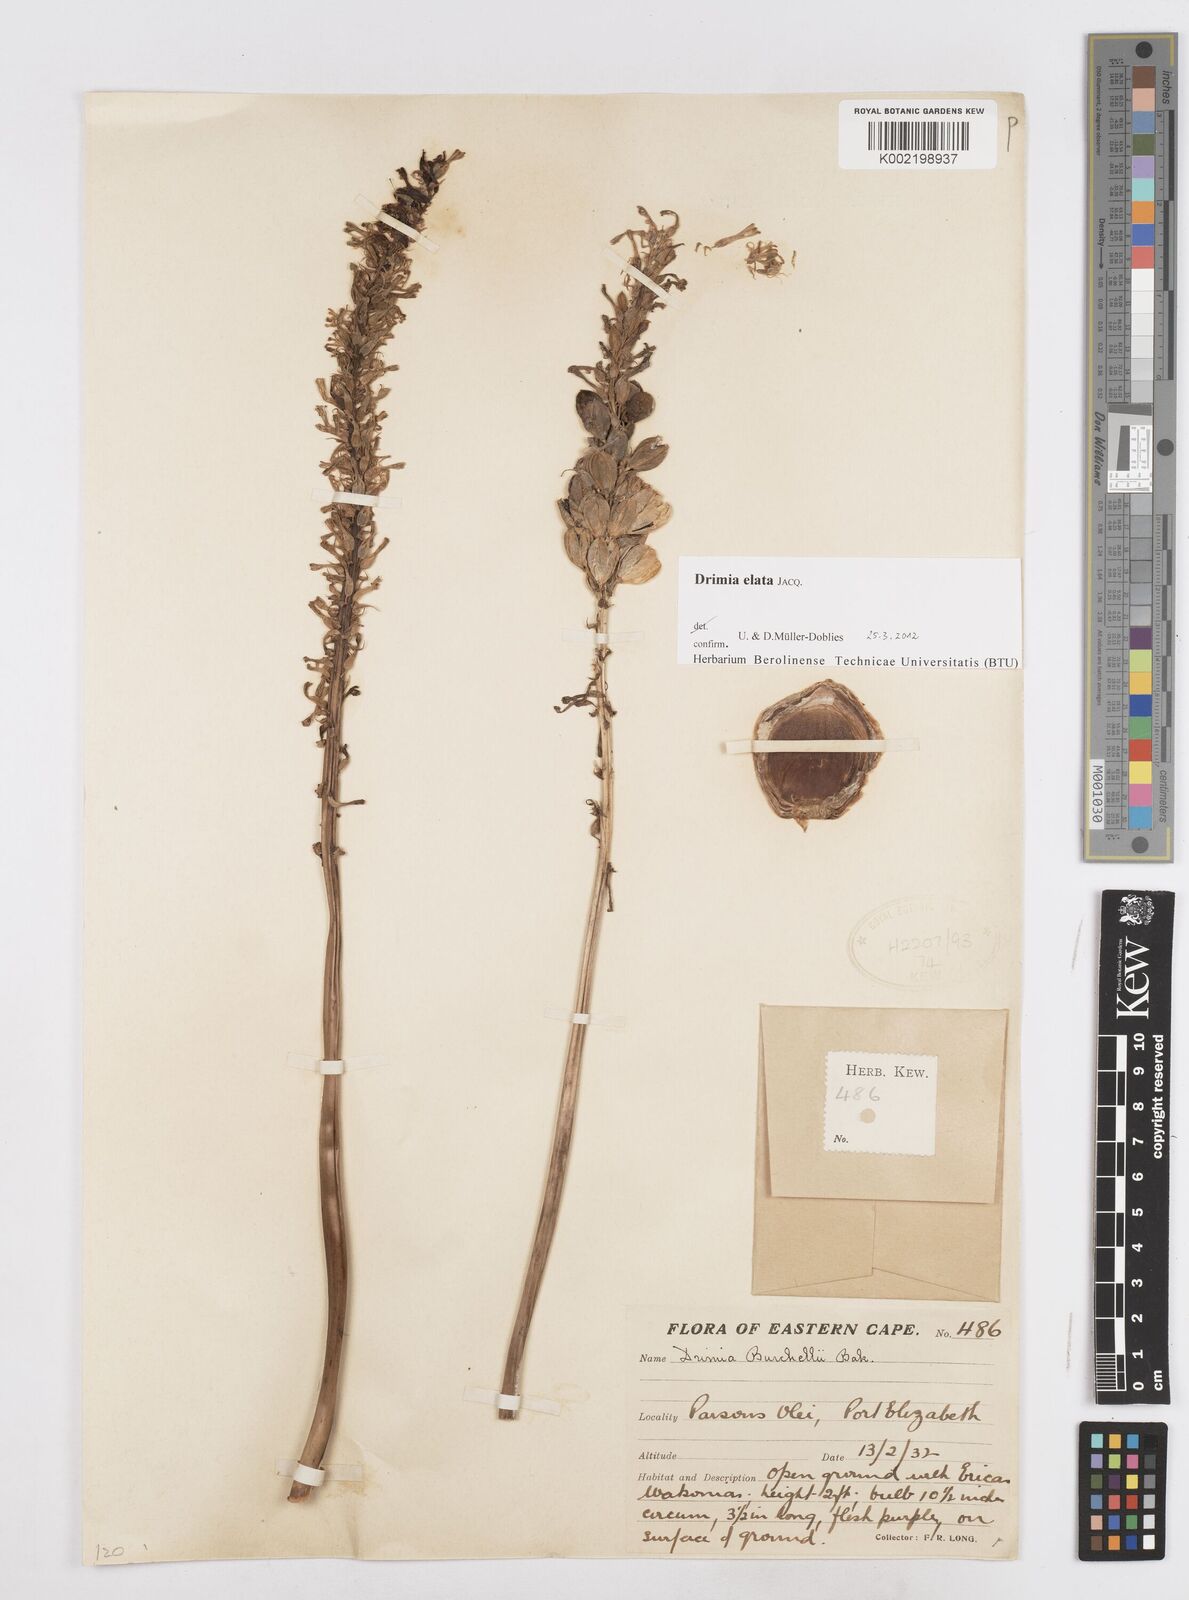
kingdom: Plantae
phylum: Tracheophyta
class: Liliopsida
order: Asparagales
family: Asparagaceae
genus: Drimia
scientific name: Drimia elata
